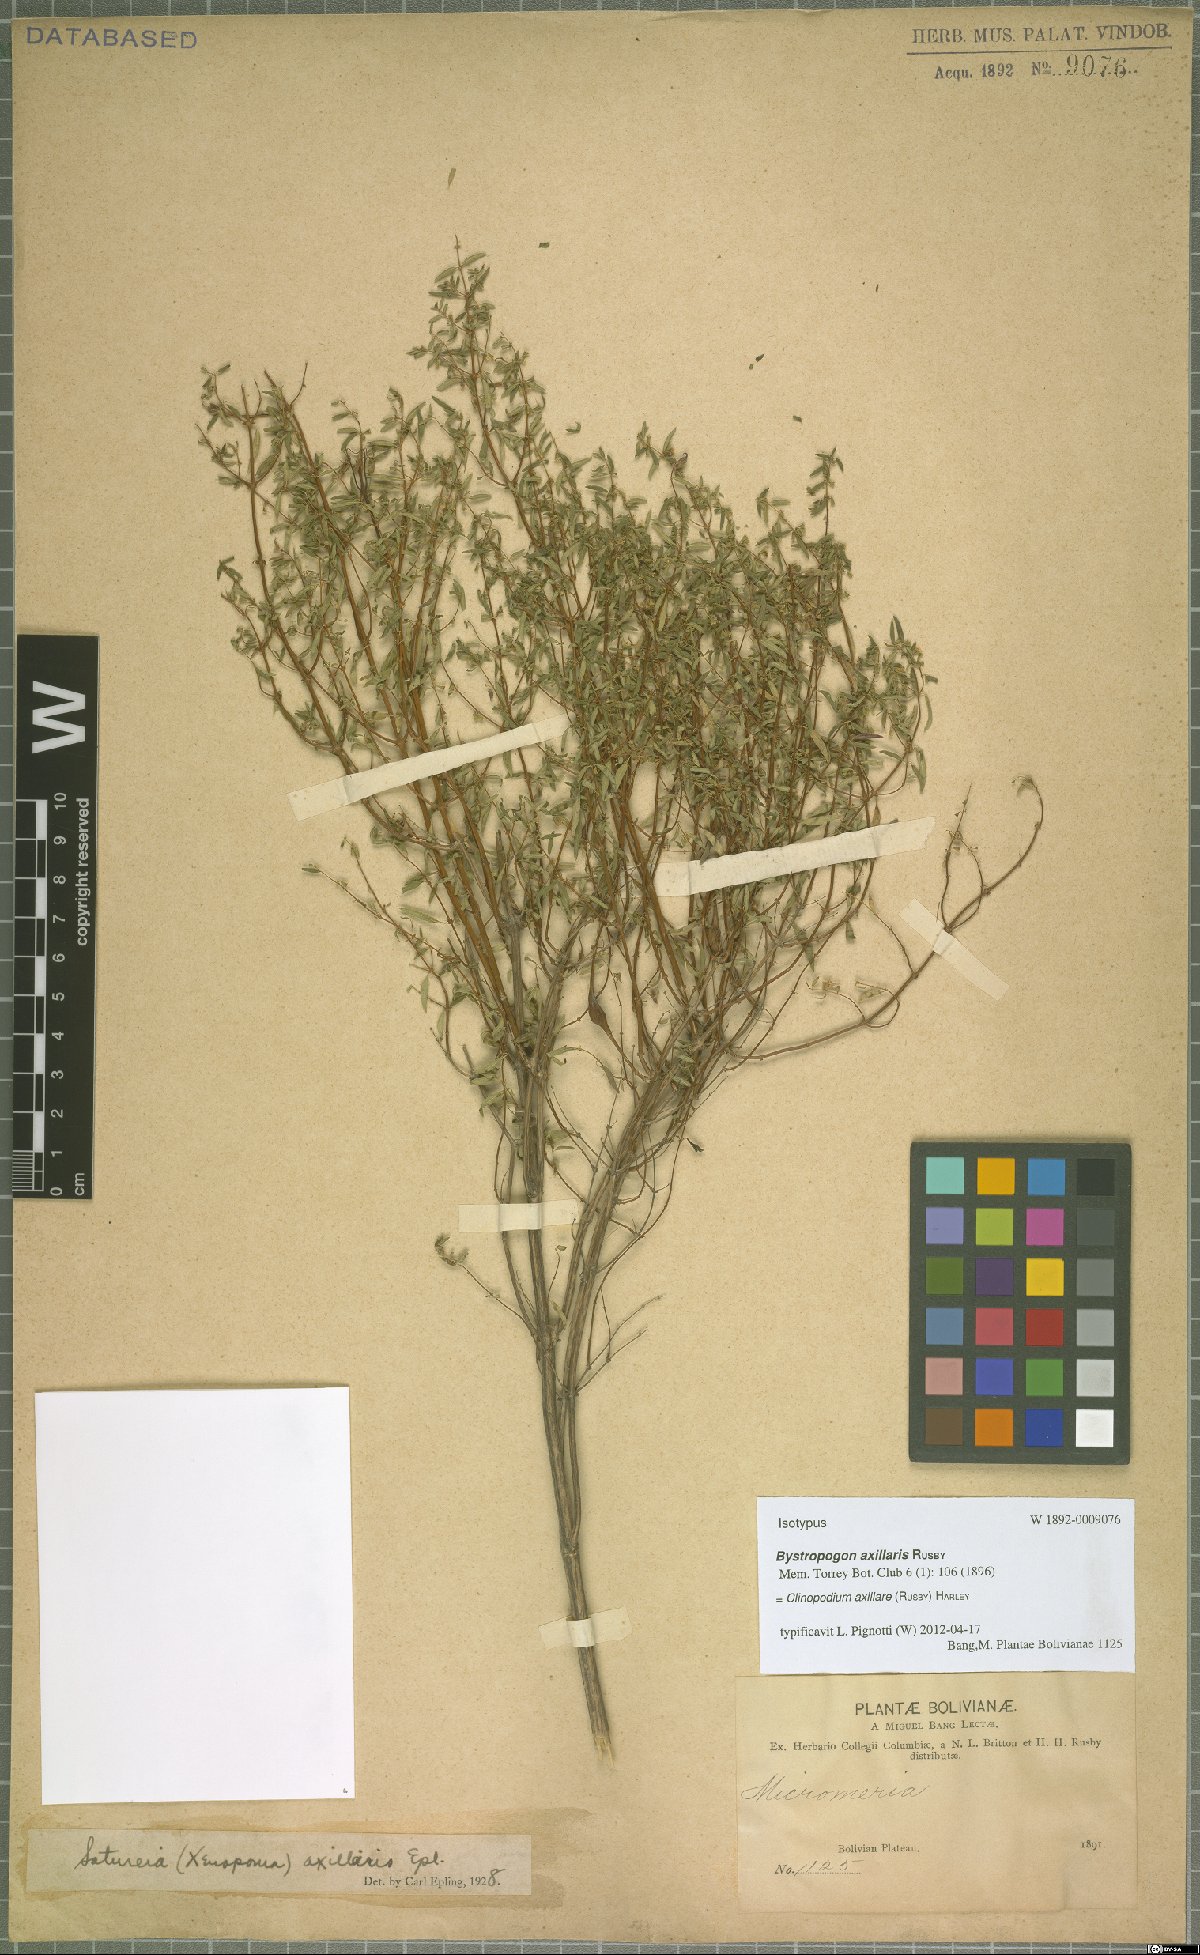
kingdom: Plantae
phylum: Tracheophyta
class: Magnoliopsida
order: Lamiales
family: Lamiaceae
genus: Clinopodium
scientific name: Clinopodium axillare
